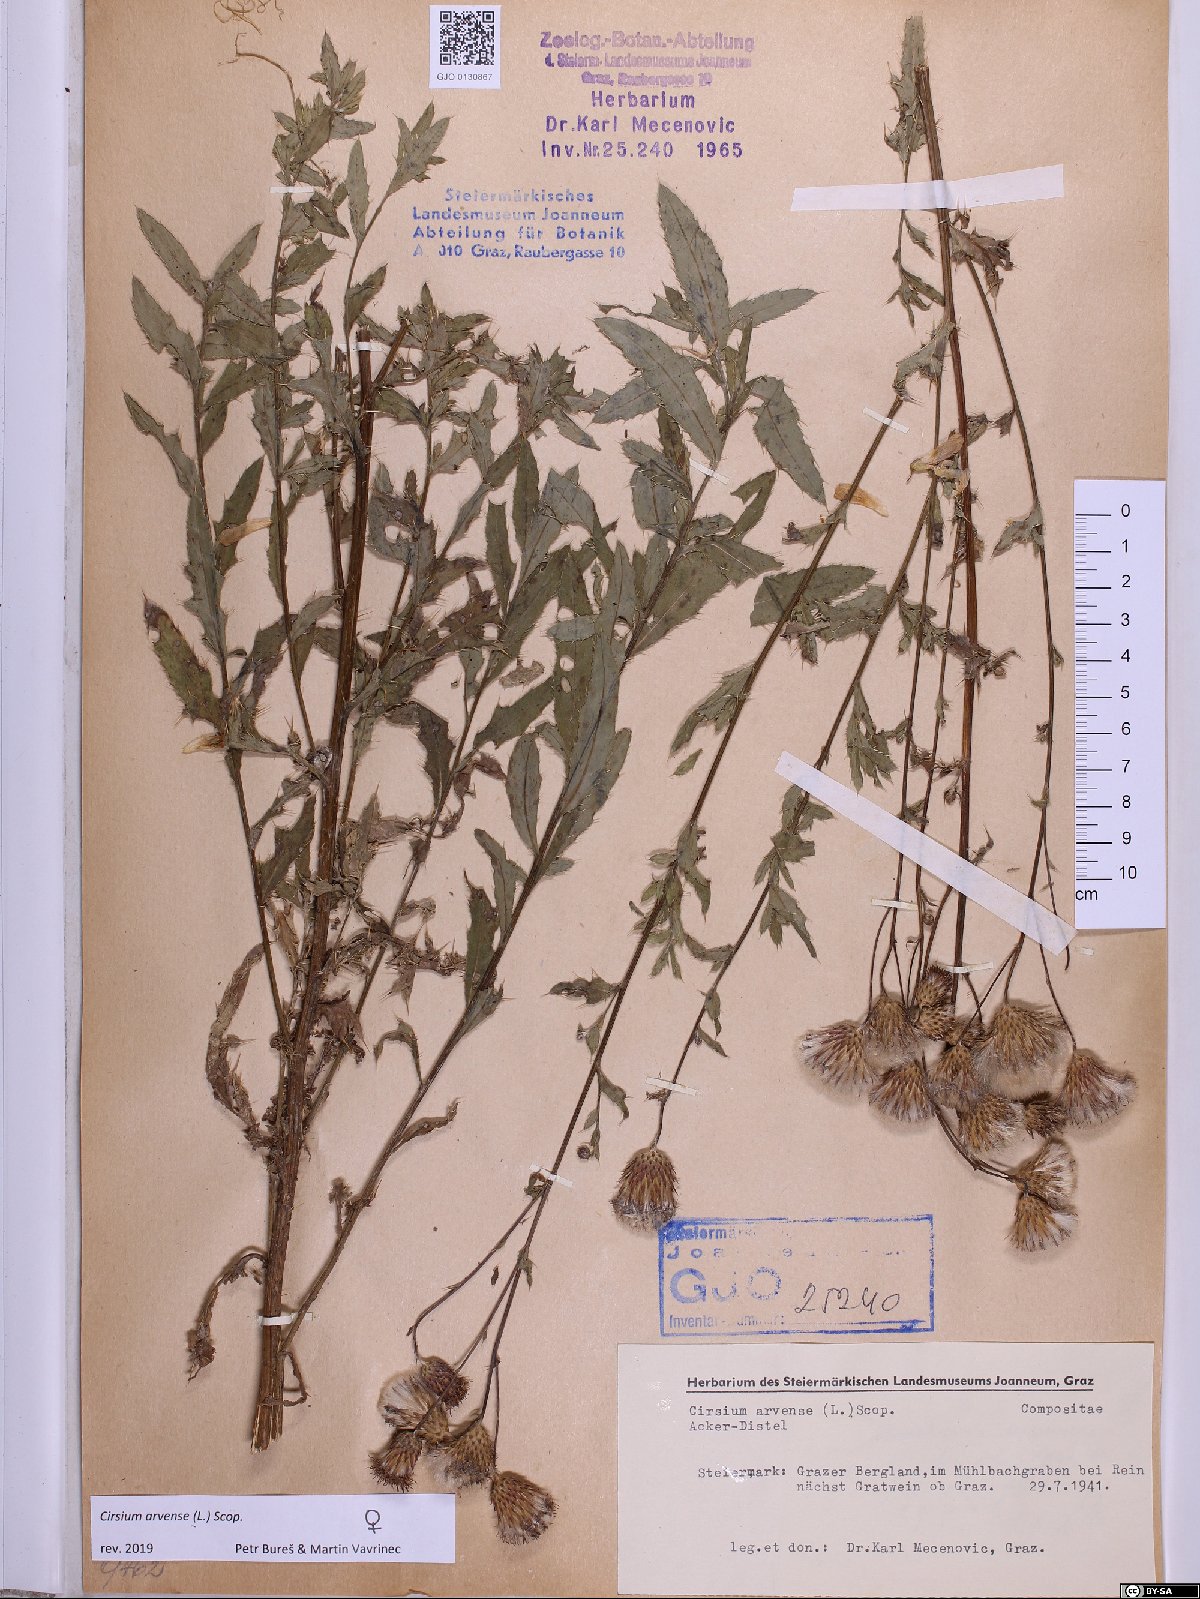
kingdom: Plantae
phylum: Tracheophyta
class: Magnoliopsida
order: Asterales
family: Asteraceae
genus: Cirsium
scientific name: Cirsium arvense
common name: Creeping thistle
